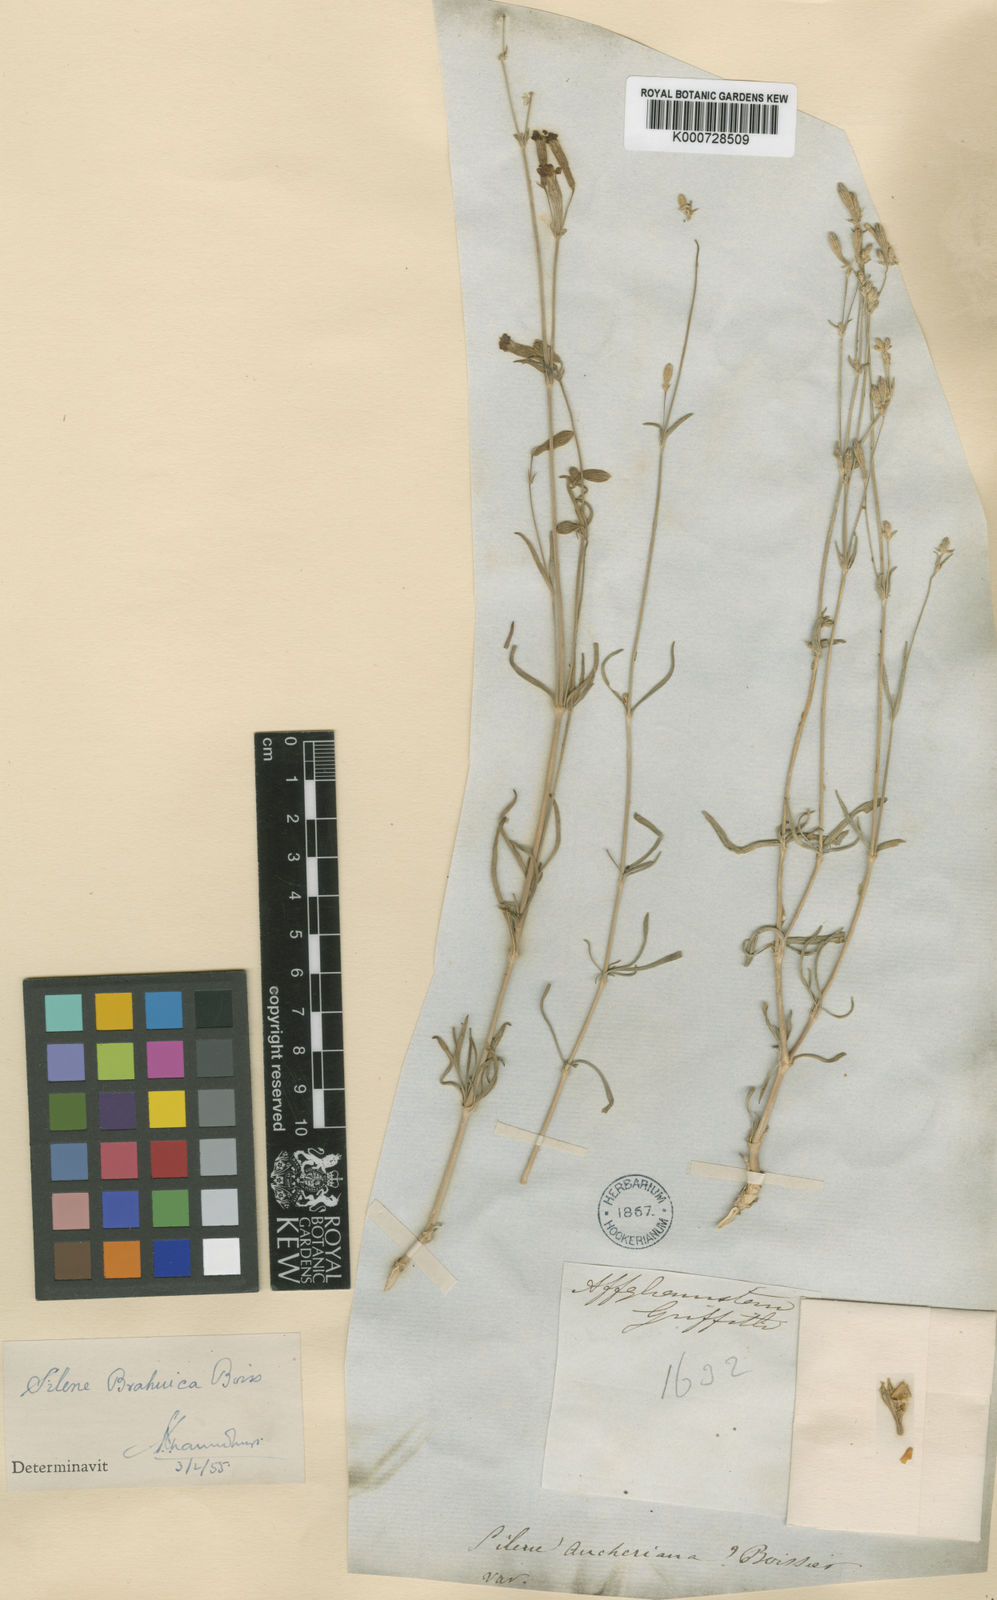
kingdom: Plantae
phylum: Tracheophyta
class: Magnoliopsida
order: Caryophyllales
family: Caryophyllaceae
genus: Silene
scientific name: Silene brahuica
